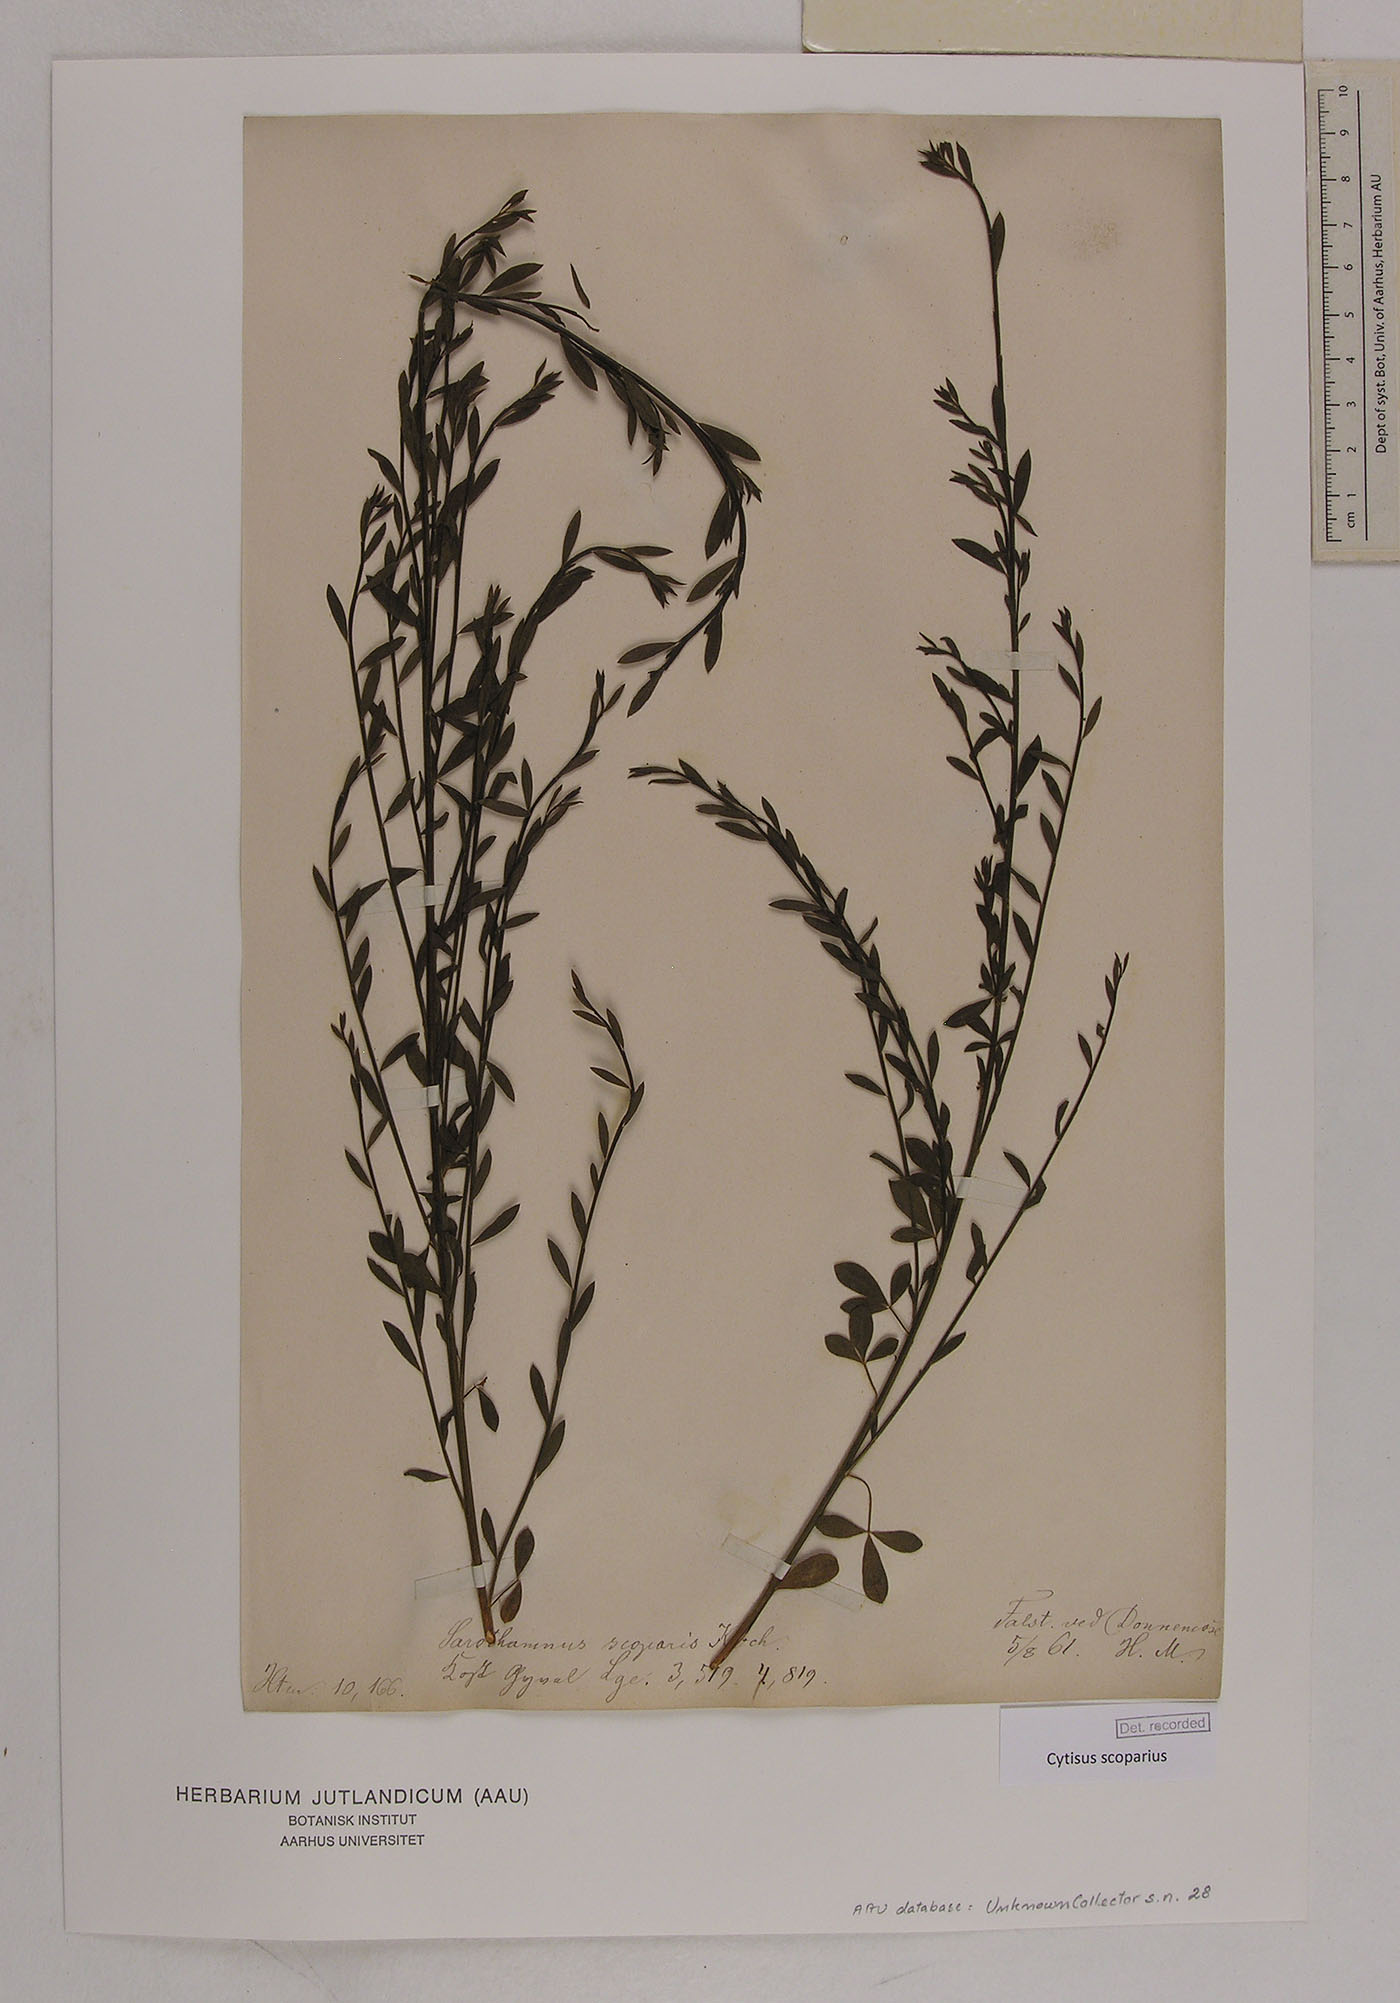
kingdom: Plantae
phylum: Tracheophyta
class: Magnoliopsida
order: Fabales
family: Fabaceae
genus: Cytisus
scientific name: Cytisus scoparius
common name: Scotch broom
